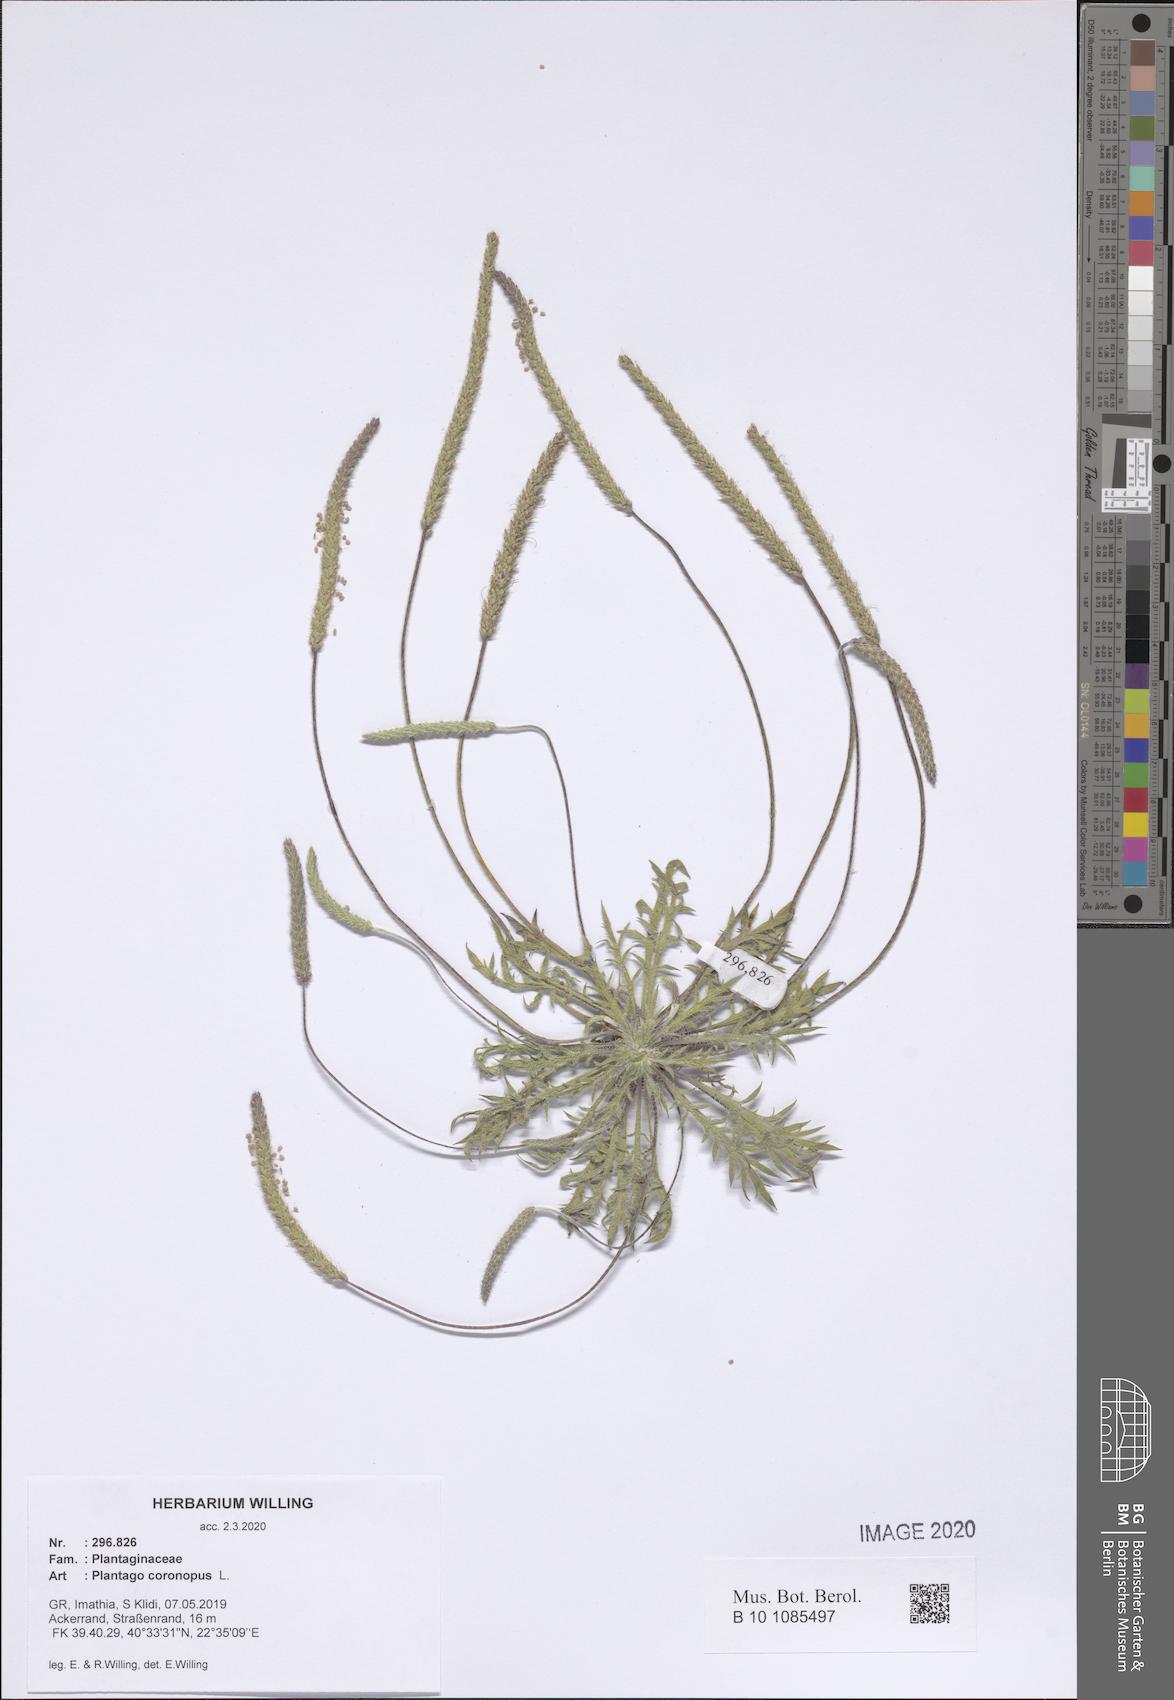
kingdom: Plantae
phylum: Tracheophyta
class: Magnoliopsida
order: Lamiales
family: Plantaginaceae
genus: Plantago
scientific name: Plantago coronopus
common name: Buck's-horn plantain
